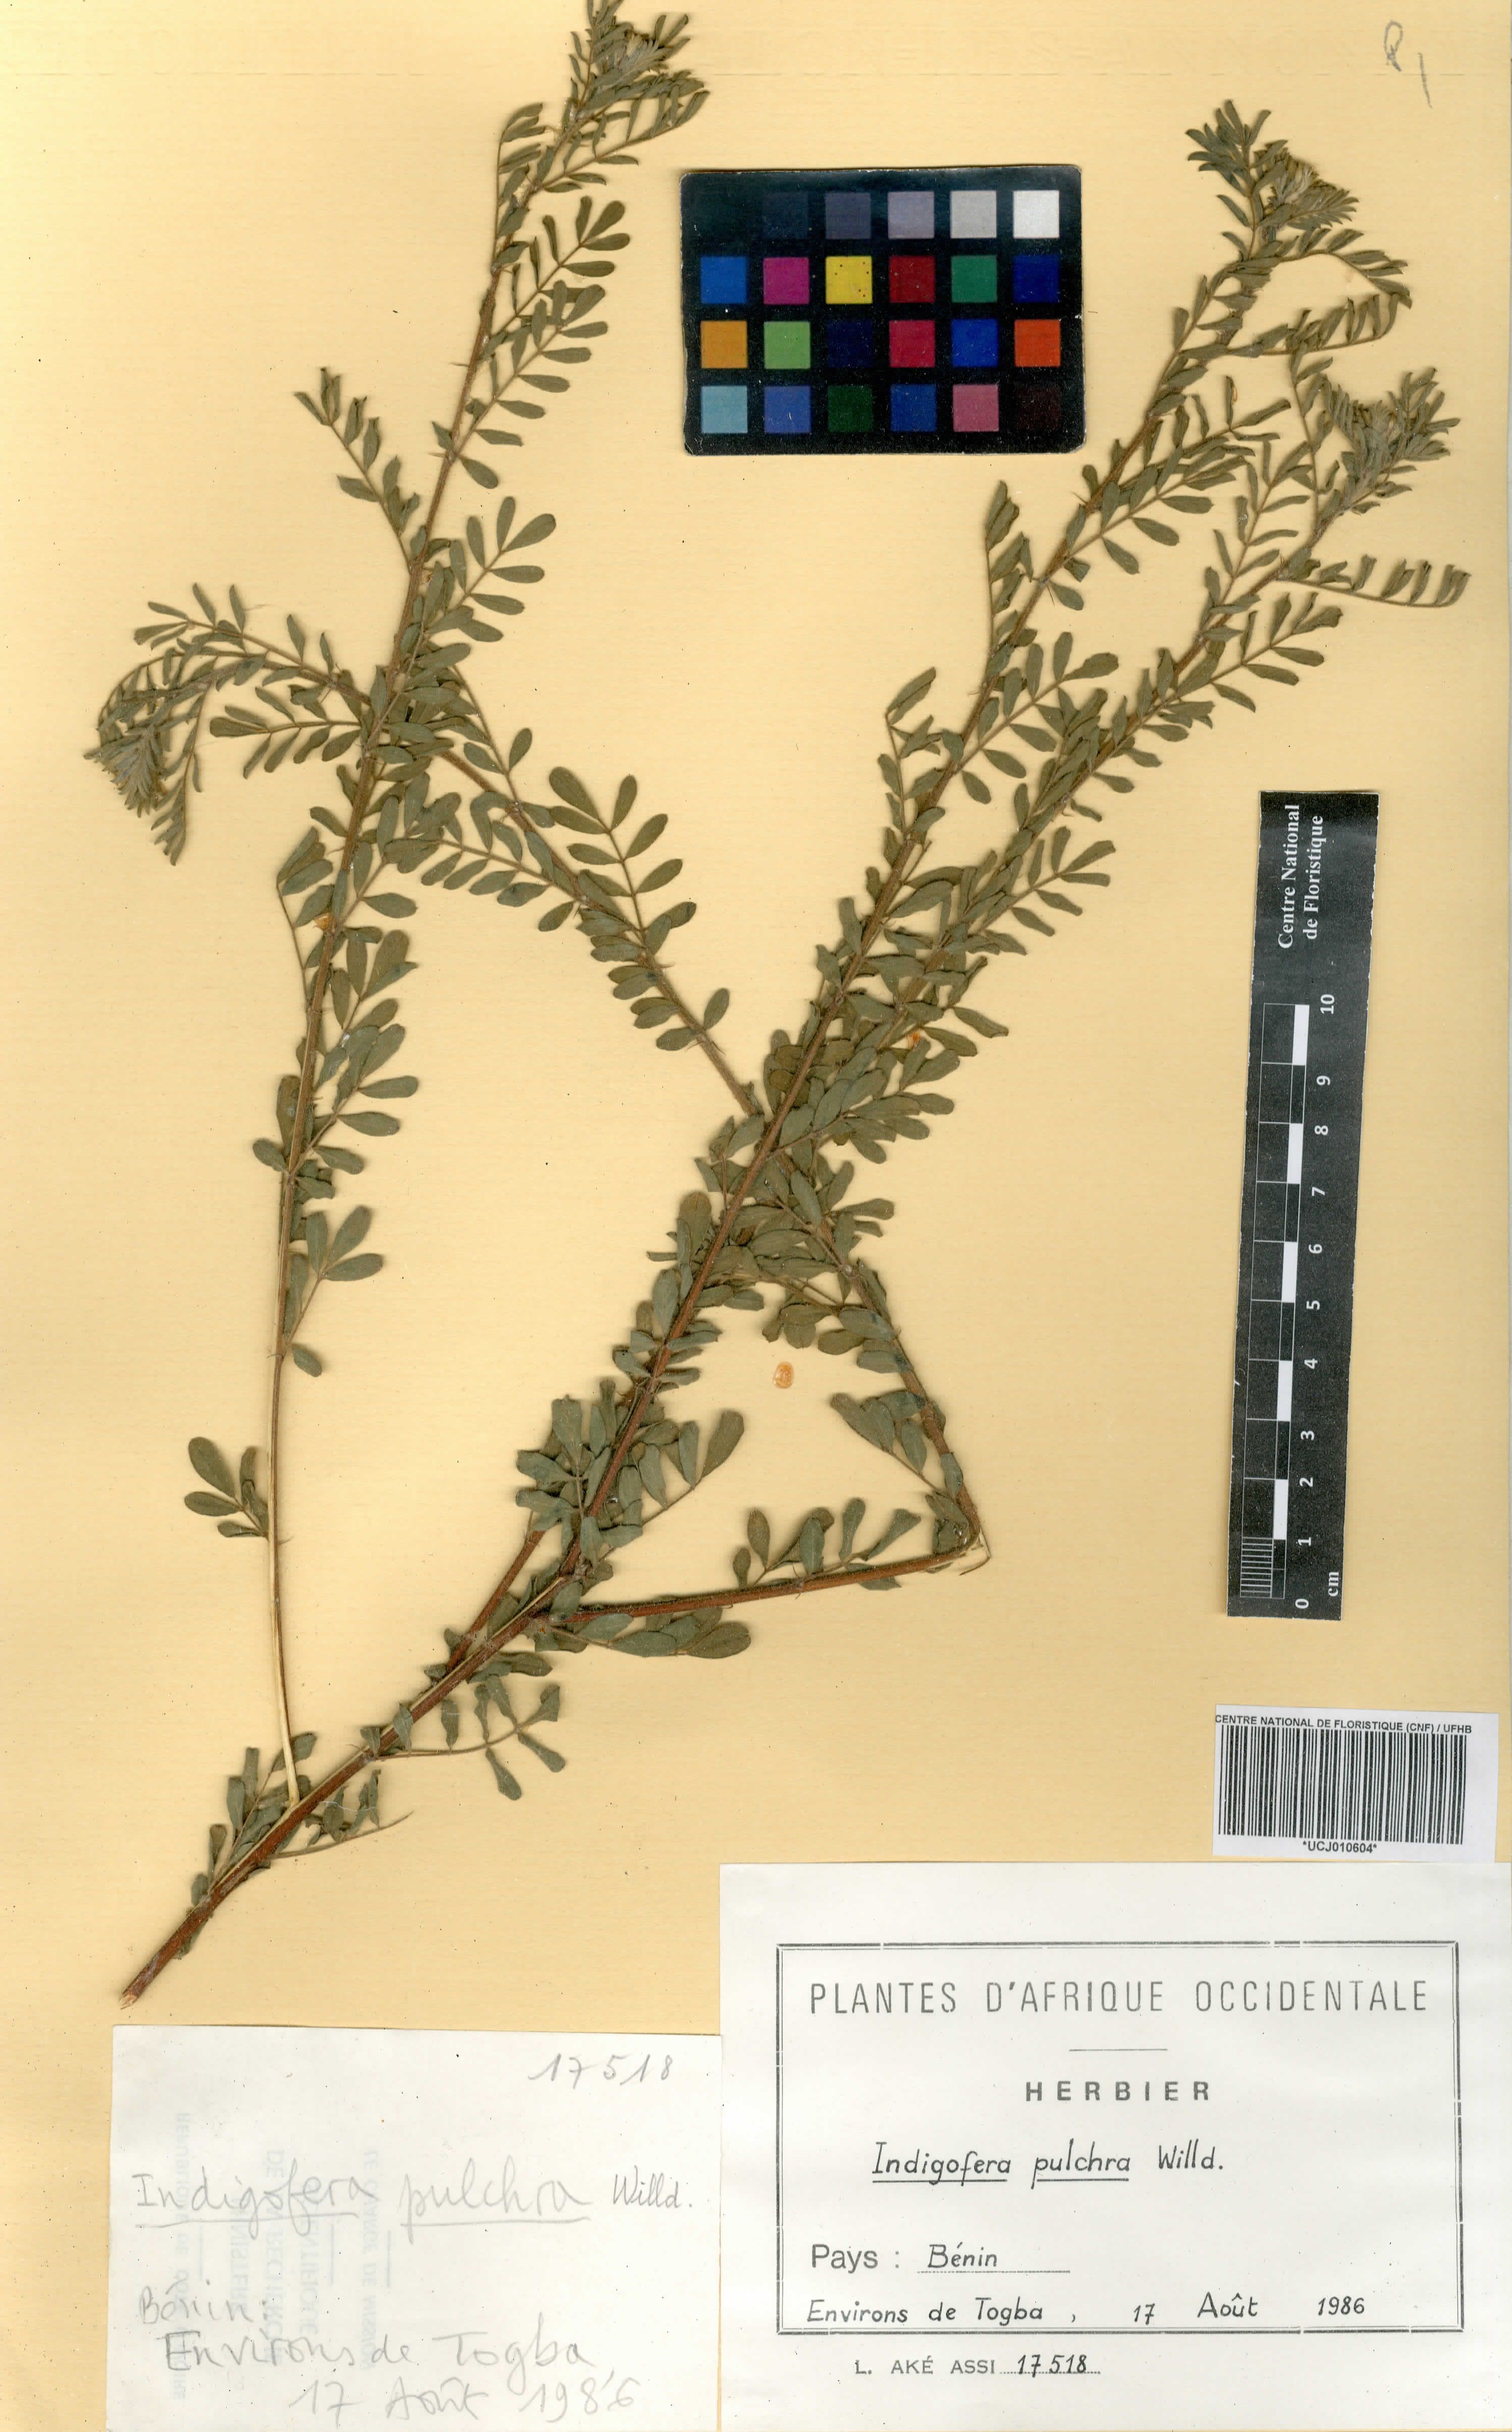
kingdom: Plantae
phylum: Tracheophyta
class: Magnoliopsida
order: Fabales
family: Fabaceae
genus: Indigofera
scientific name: Indigofera pulchra
